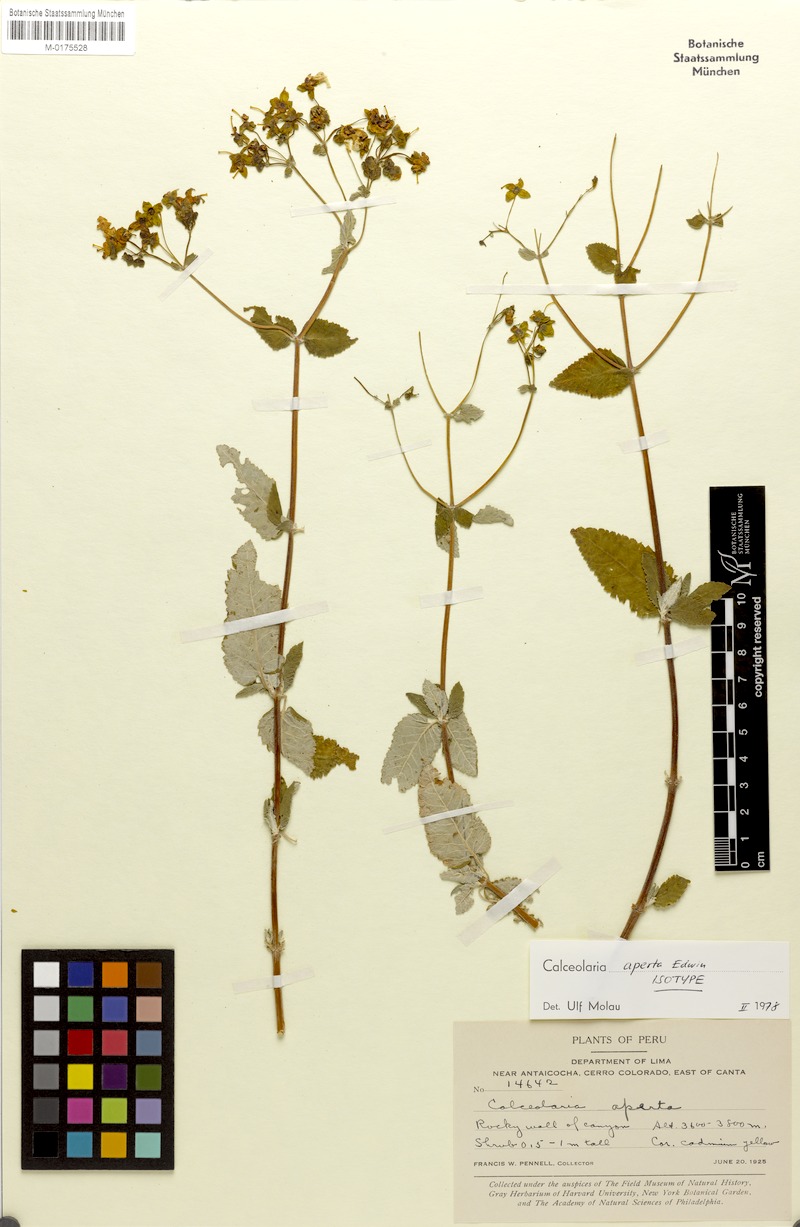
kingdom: Plantae
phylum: Tracheophyta
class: Magnoliopsida
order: Lamiales
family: Calceolariaceae
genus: Calceolaria
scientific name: Calceolaria aperta
